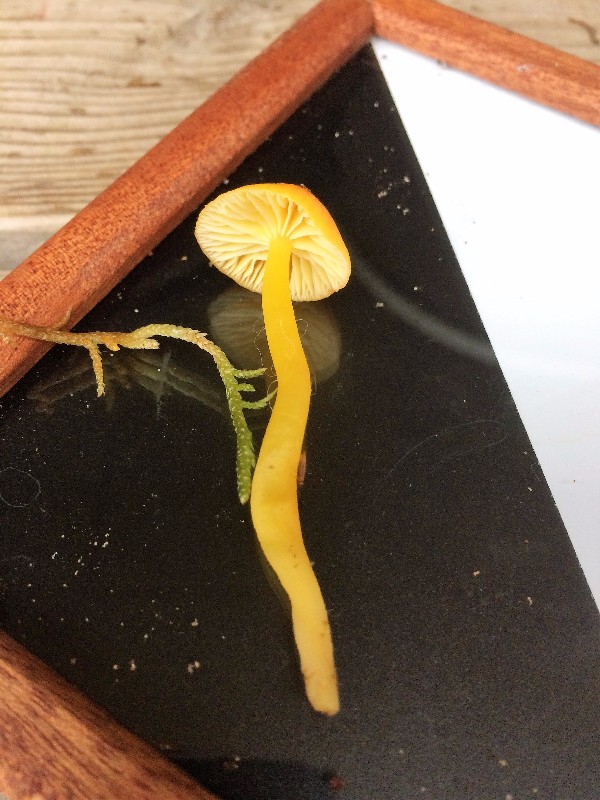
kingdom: Fungi
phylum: Basidiomycota
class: Agaricomycetes
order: Agaricales
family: Hygrophoraceae
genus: Hygrocybe
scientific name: Hygrocybe ceracea
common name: voksgul vokshat
